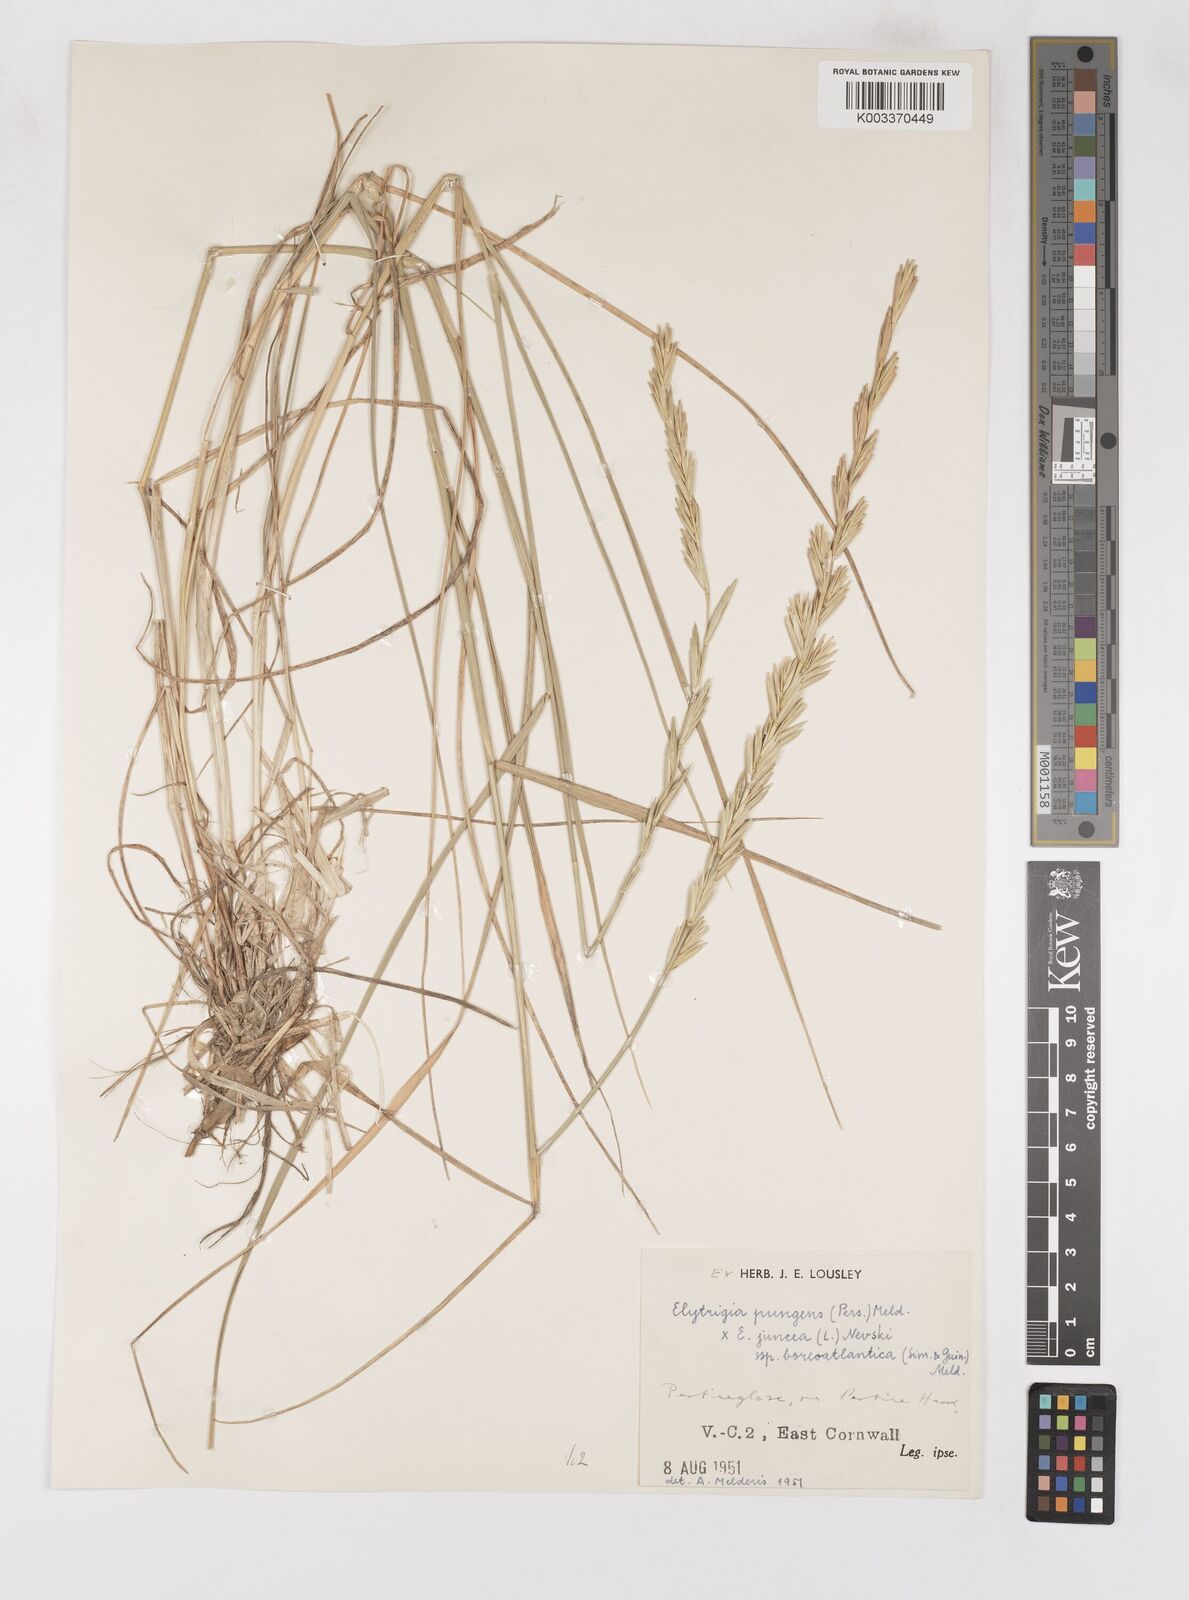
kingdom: Plantae
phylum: Tracheophyta
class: Liliopsida
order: Poales
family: Poaceae
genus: Thinoelymus
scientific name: Thinoelymus obtusiusculus
